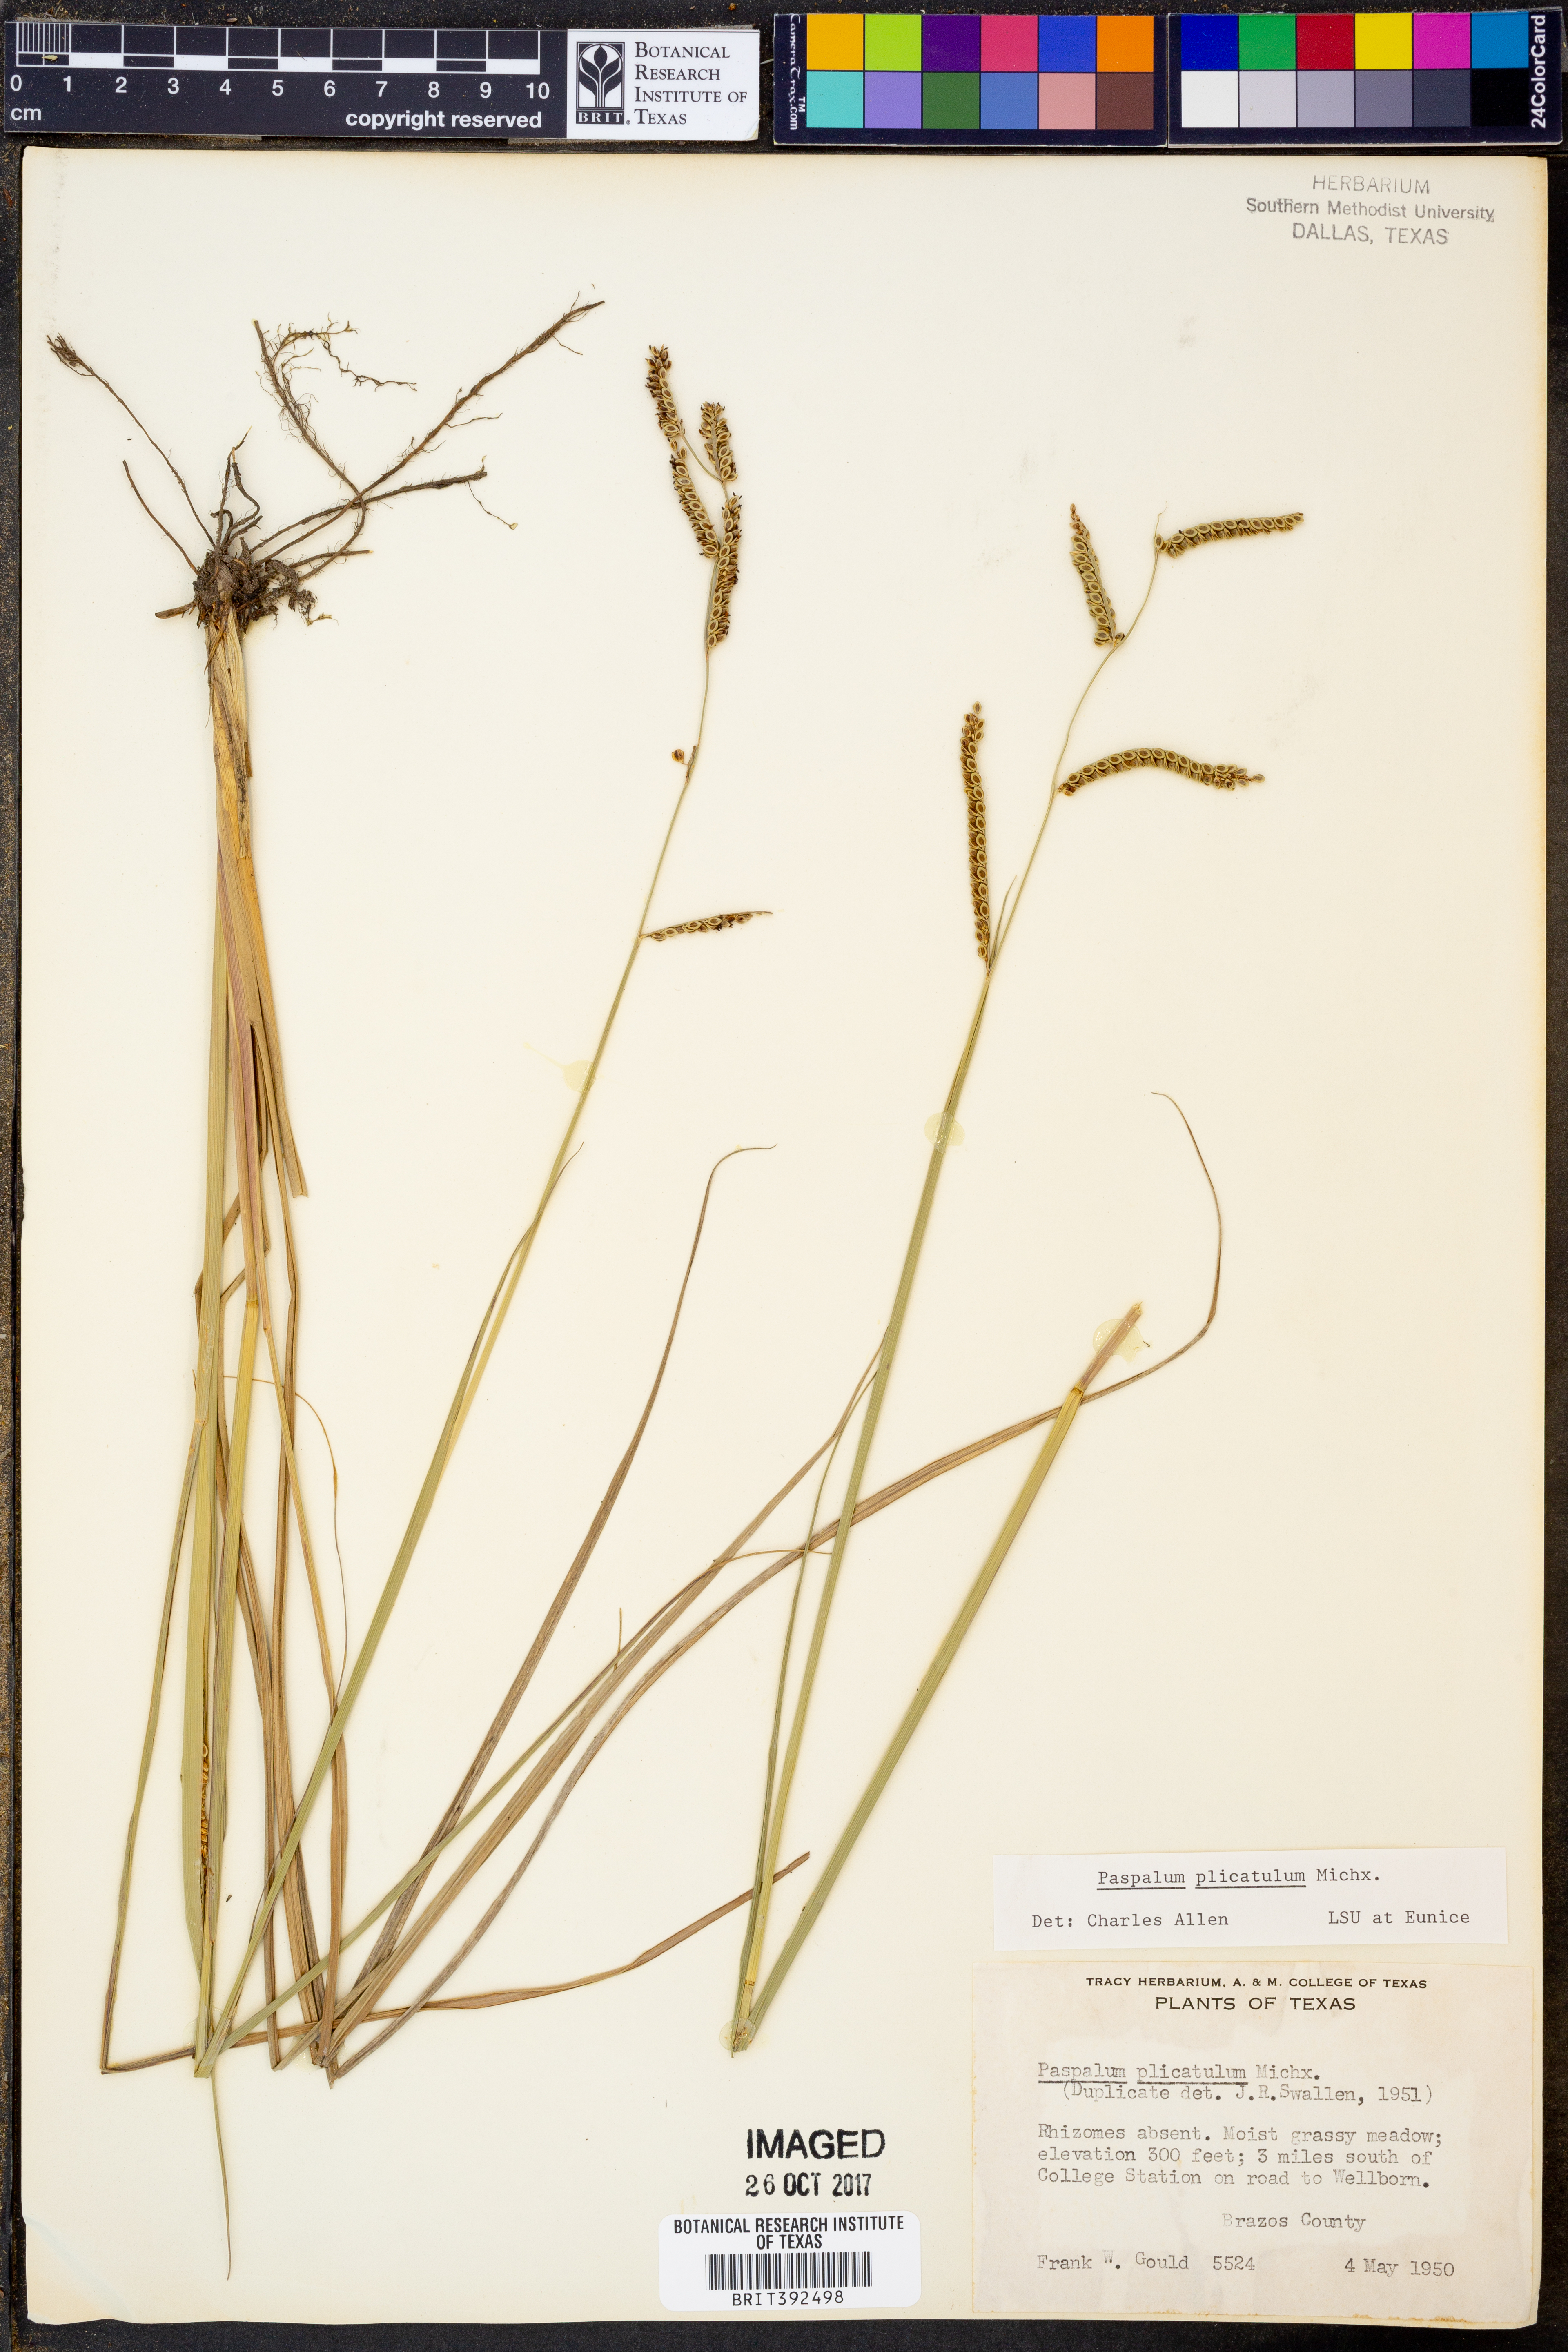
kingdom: Plantae
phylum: Tracheophyta
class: Liliopsida
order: Poales
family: Poaceae
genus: Paspalum
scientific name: Paspalum plicatulum
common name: Top paspalum
